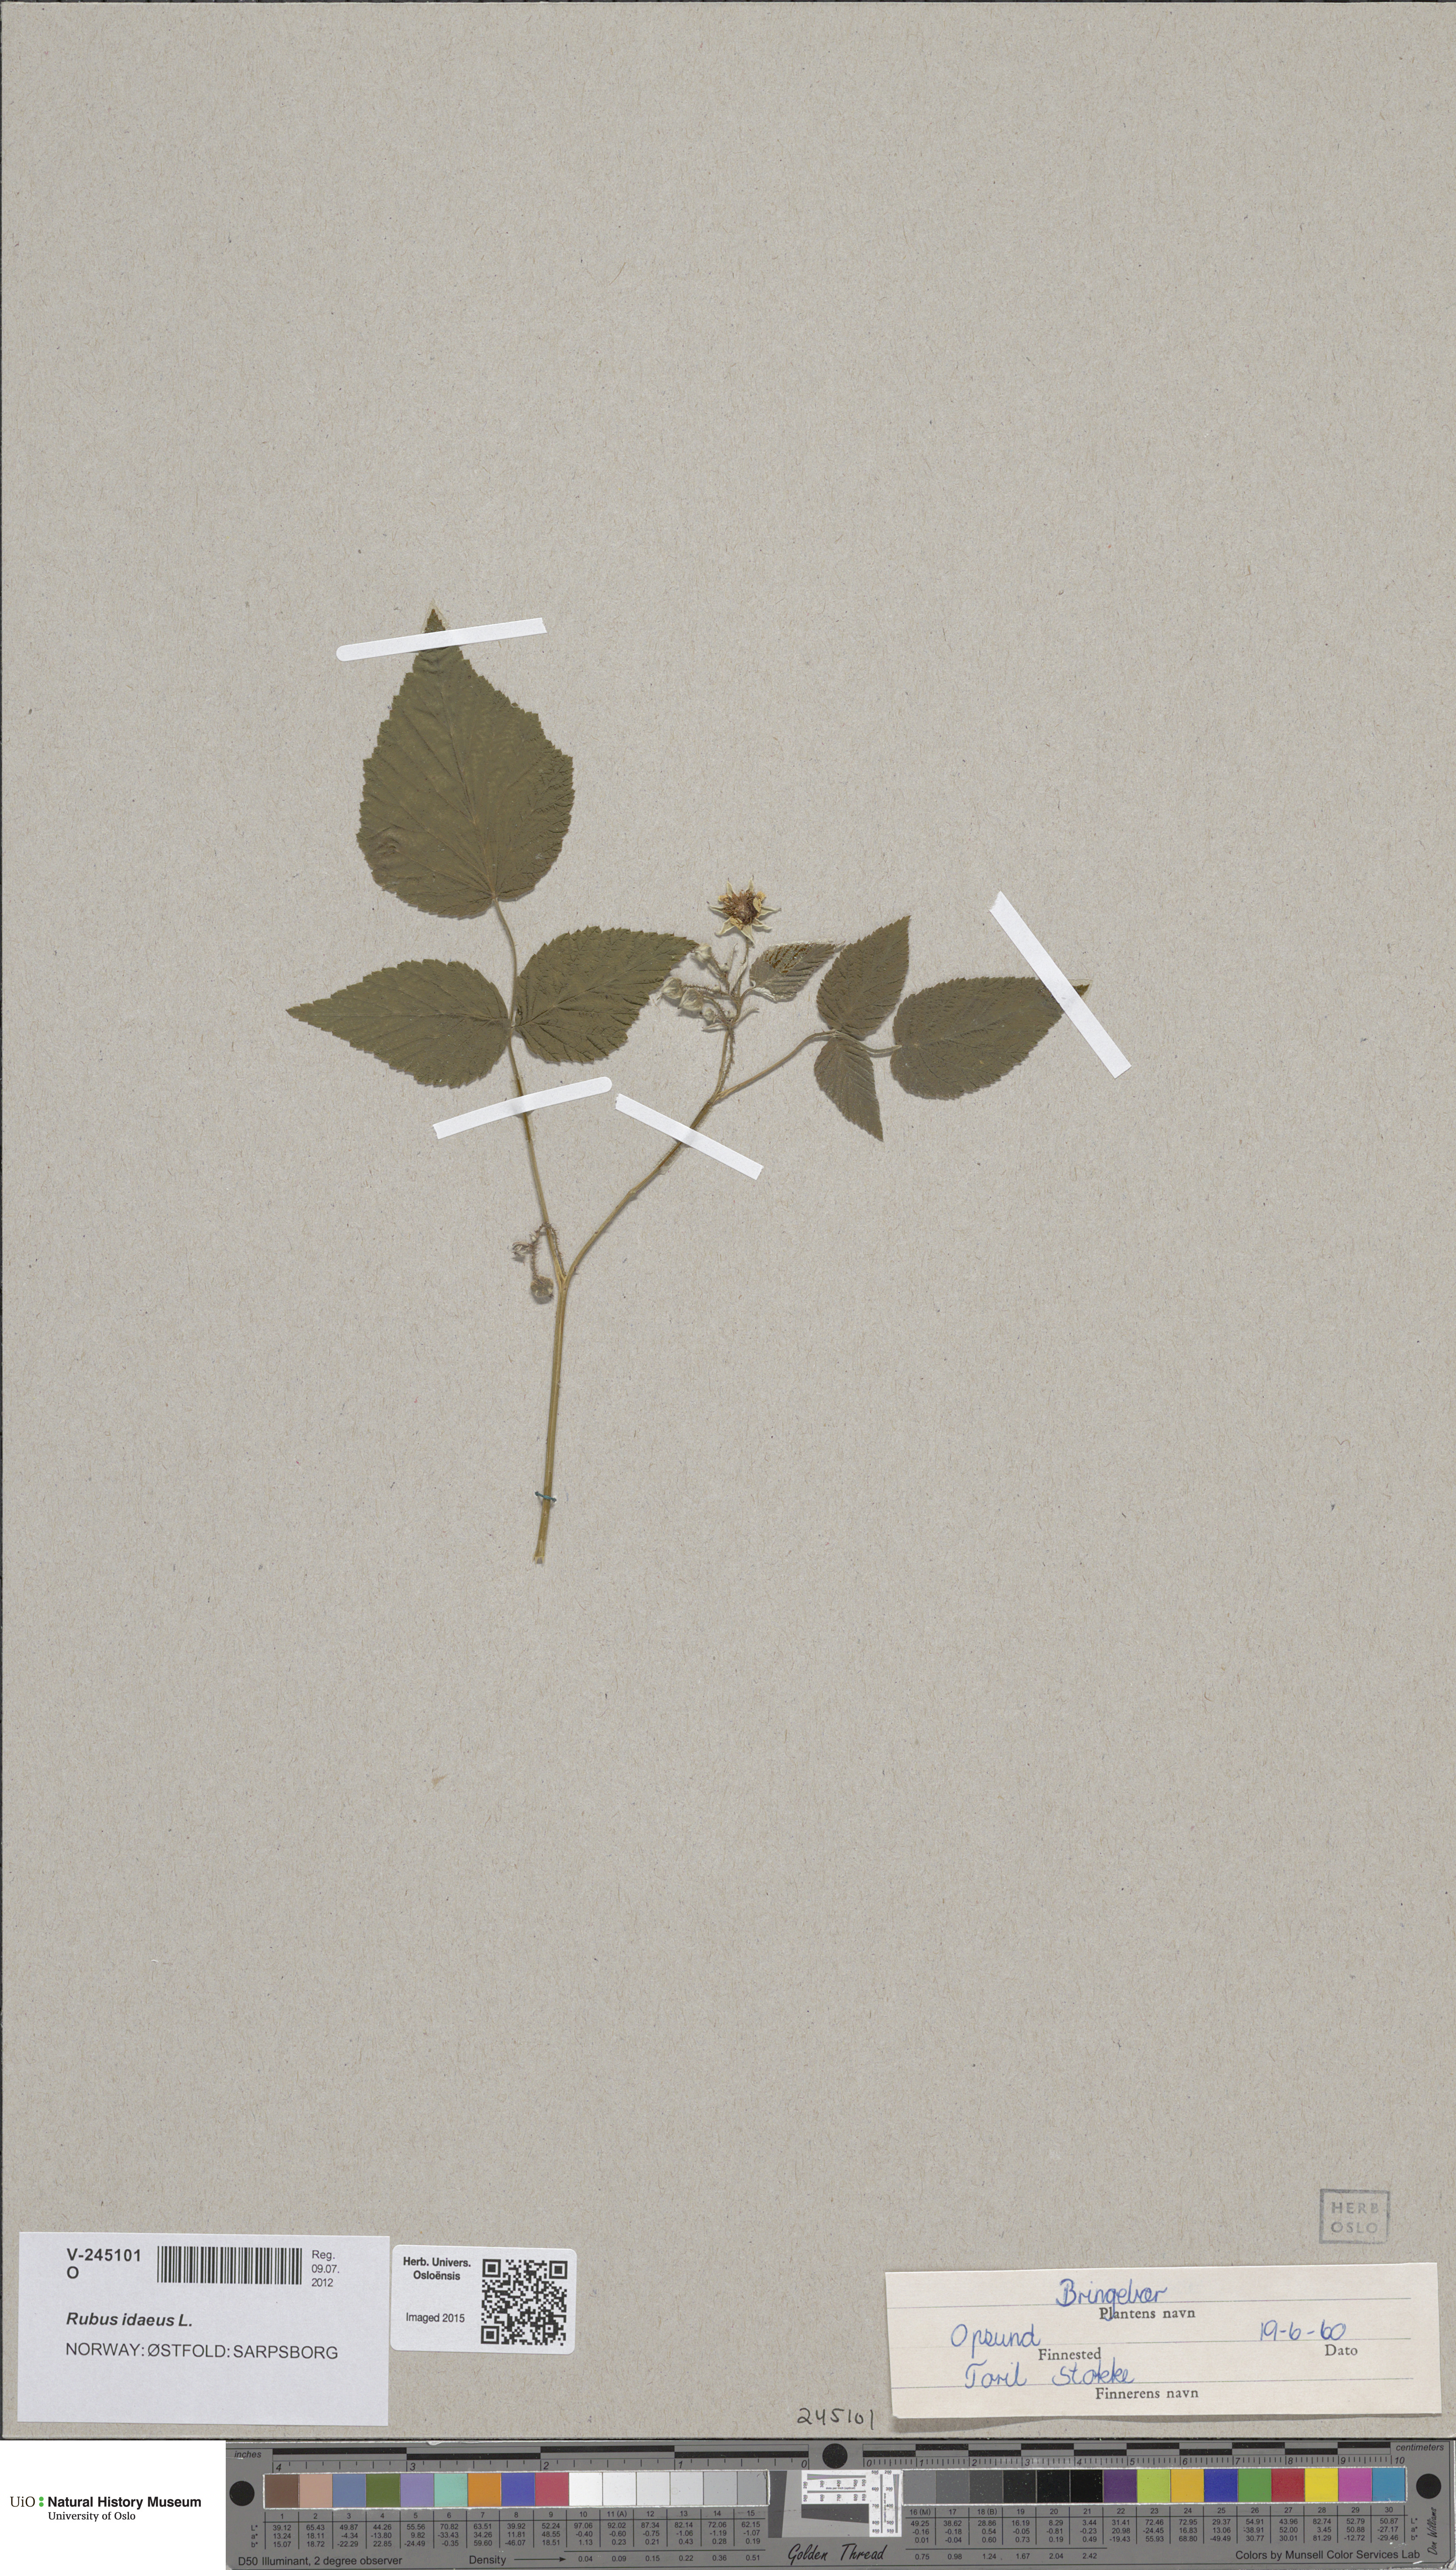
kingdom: Plantae
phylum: Tracheophyta
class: Magnoliopsida
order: Rosales
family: Rosaceae
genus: Rubus
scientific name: Rubus idaeus
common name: Raspberry
